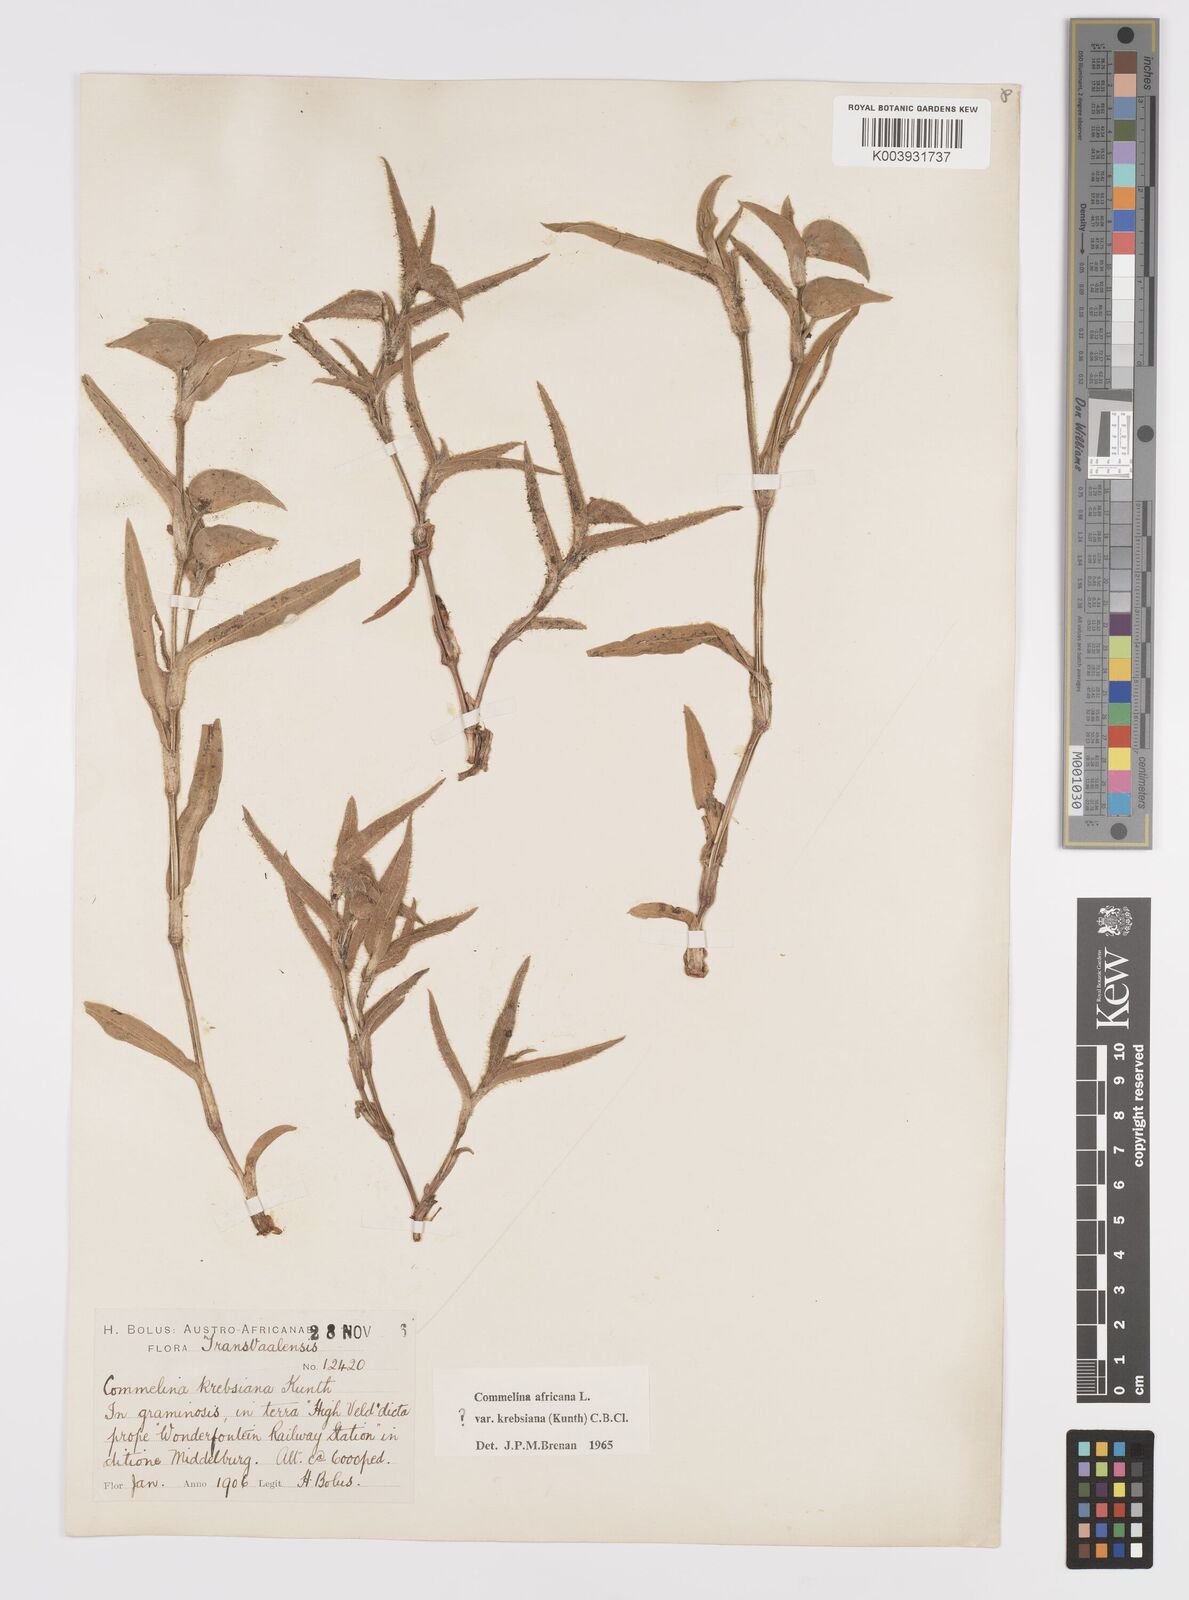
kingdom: Plantae
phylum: Tracheophyta
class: Liliopsida
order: Commelinales
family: Commelinaceae
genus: Commelina
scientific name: Commelina africana
